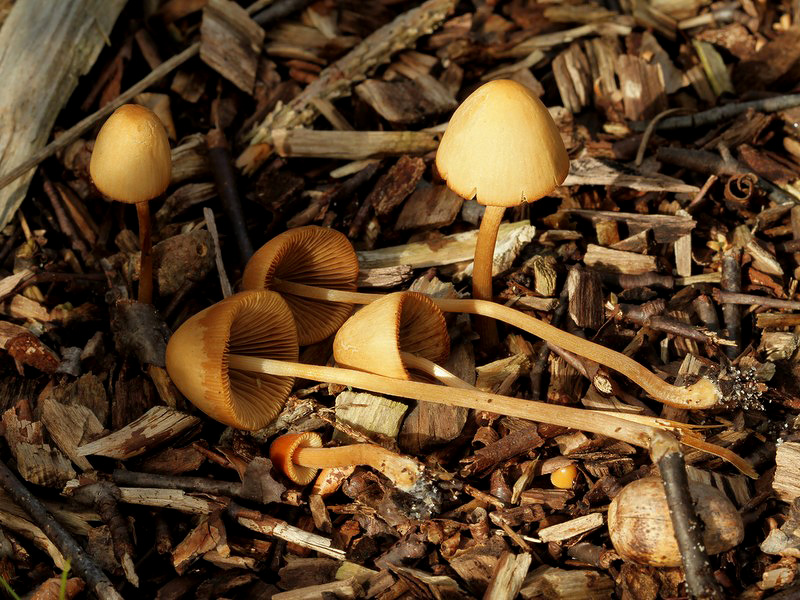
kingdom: Fungi
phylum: Basidiomycota
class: Agaricomycetes
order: Agaricales
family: Bolbitiaceae
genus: Conocybe
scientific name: Conocybe subpubescens
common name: krat-keglehat
